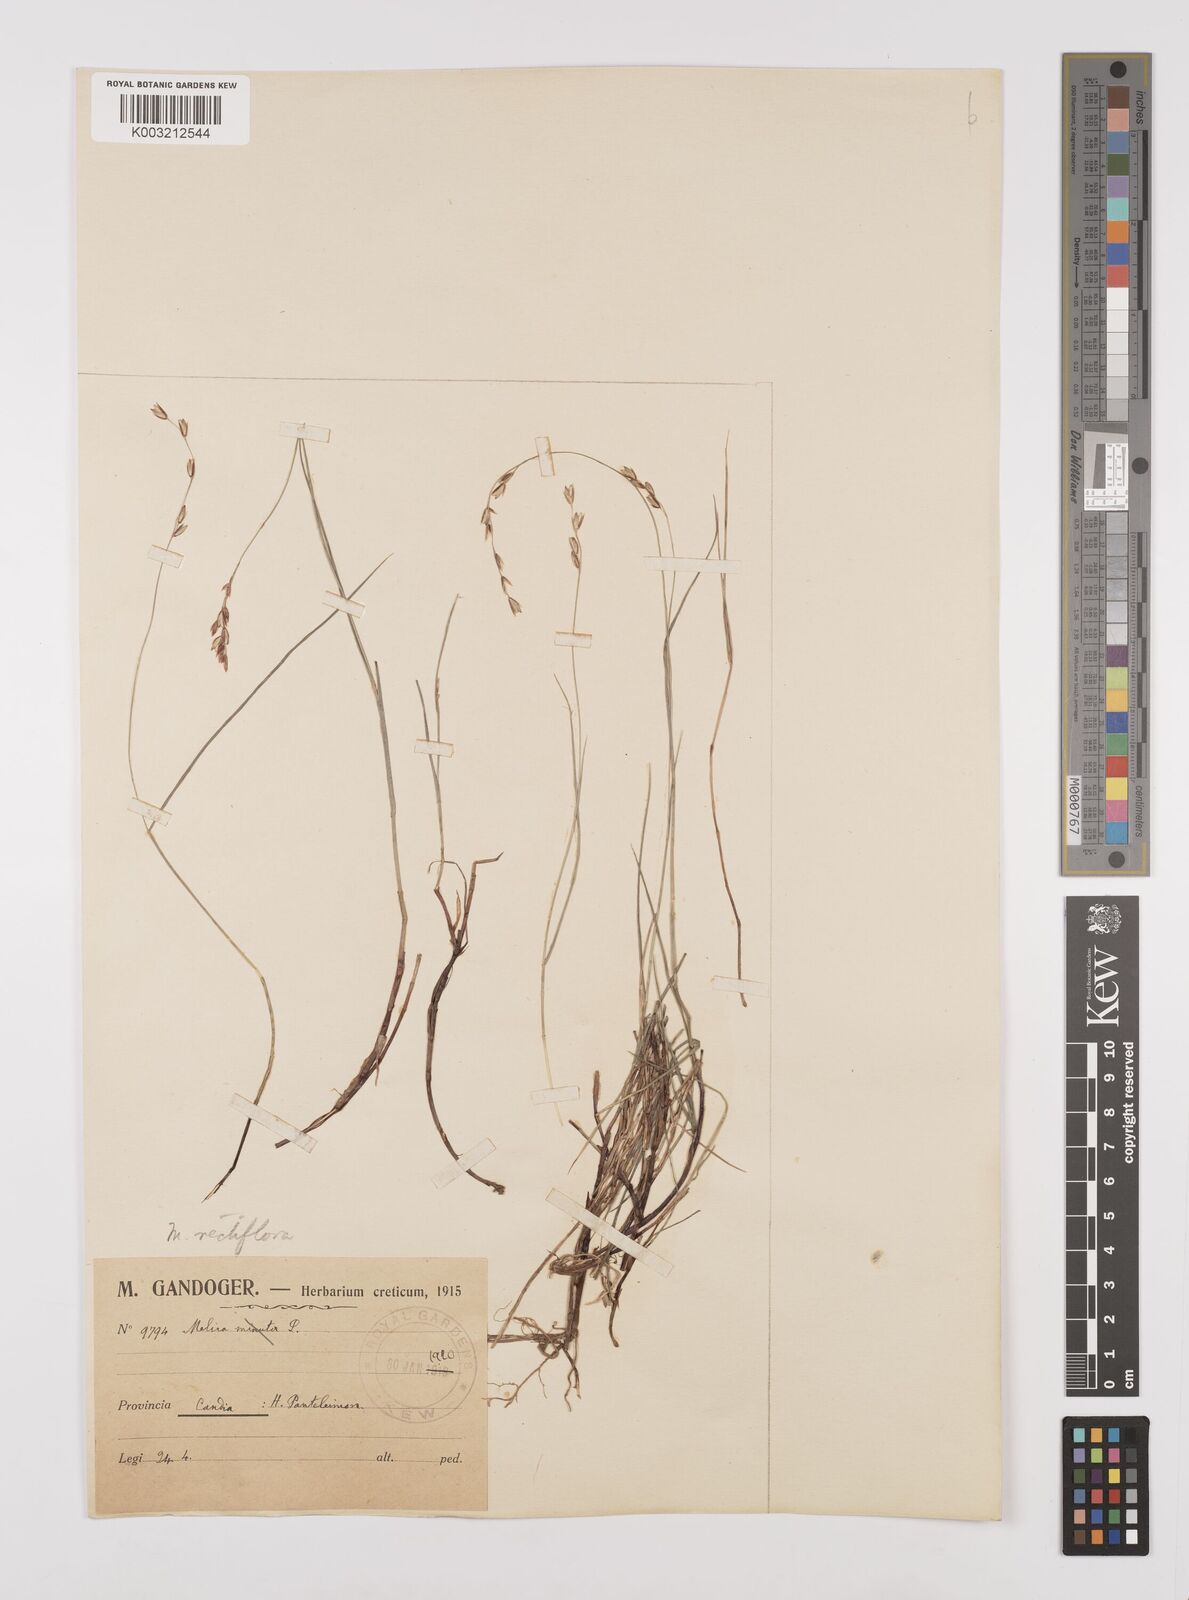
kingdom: Plantae
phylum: Tracheophyta
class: Liliopsida
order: Poales
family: Poaceae
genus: Melica
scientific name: Melica rectiflora
